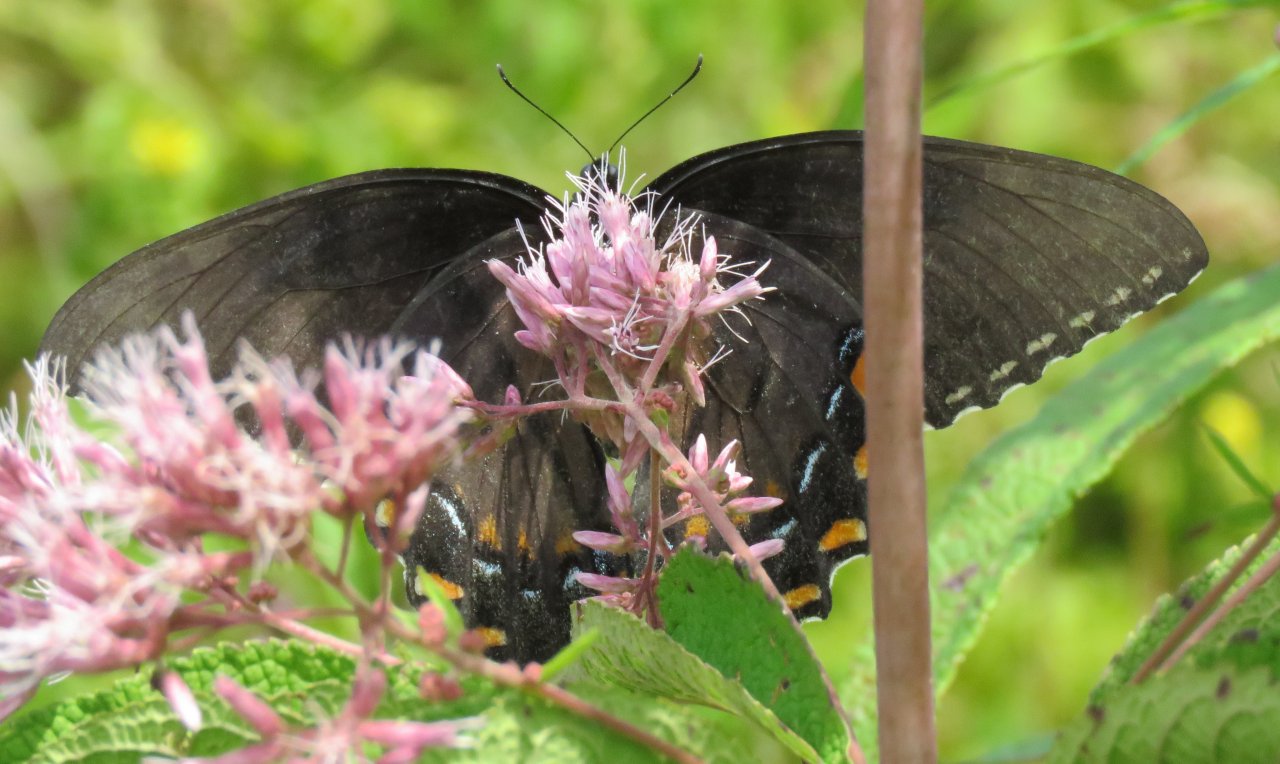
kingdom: Animalia
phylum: Arthropoda
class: Insecta
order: Lepidoptera
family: Papilionidae
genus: Pterourus
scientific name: Pterourus glaucus
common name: Eastern Tiger Swallowtail
